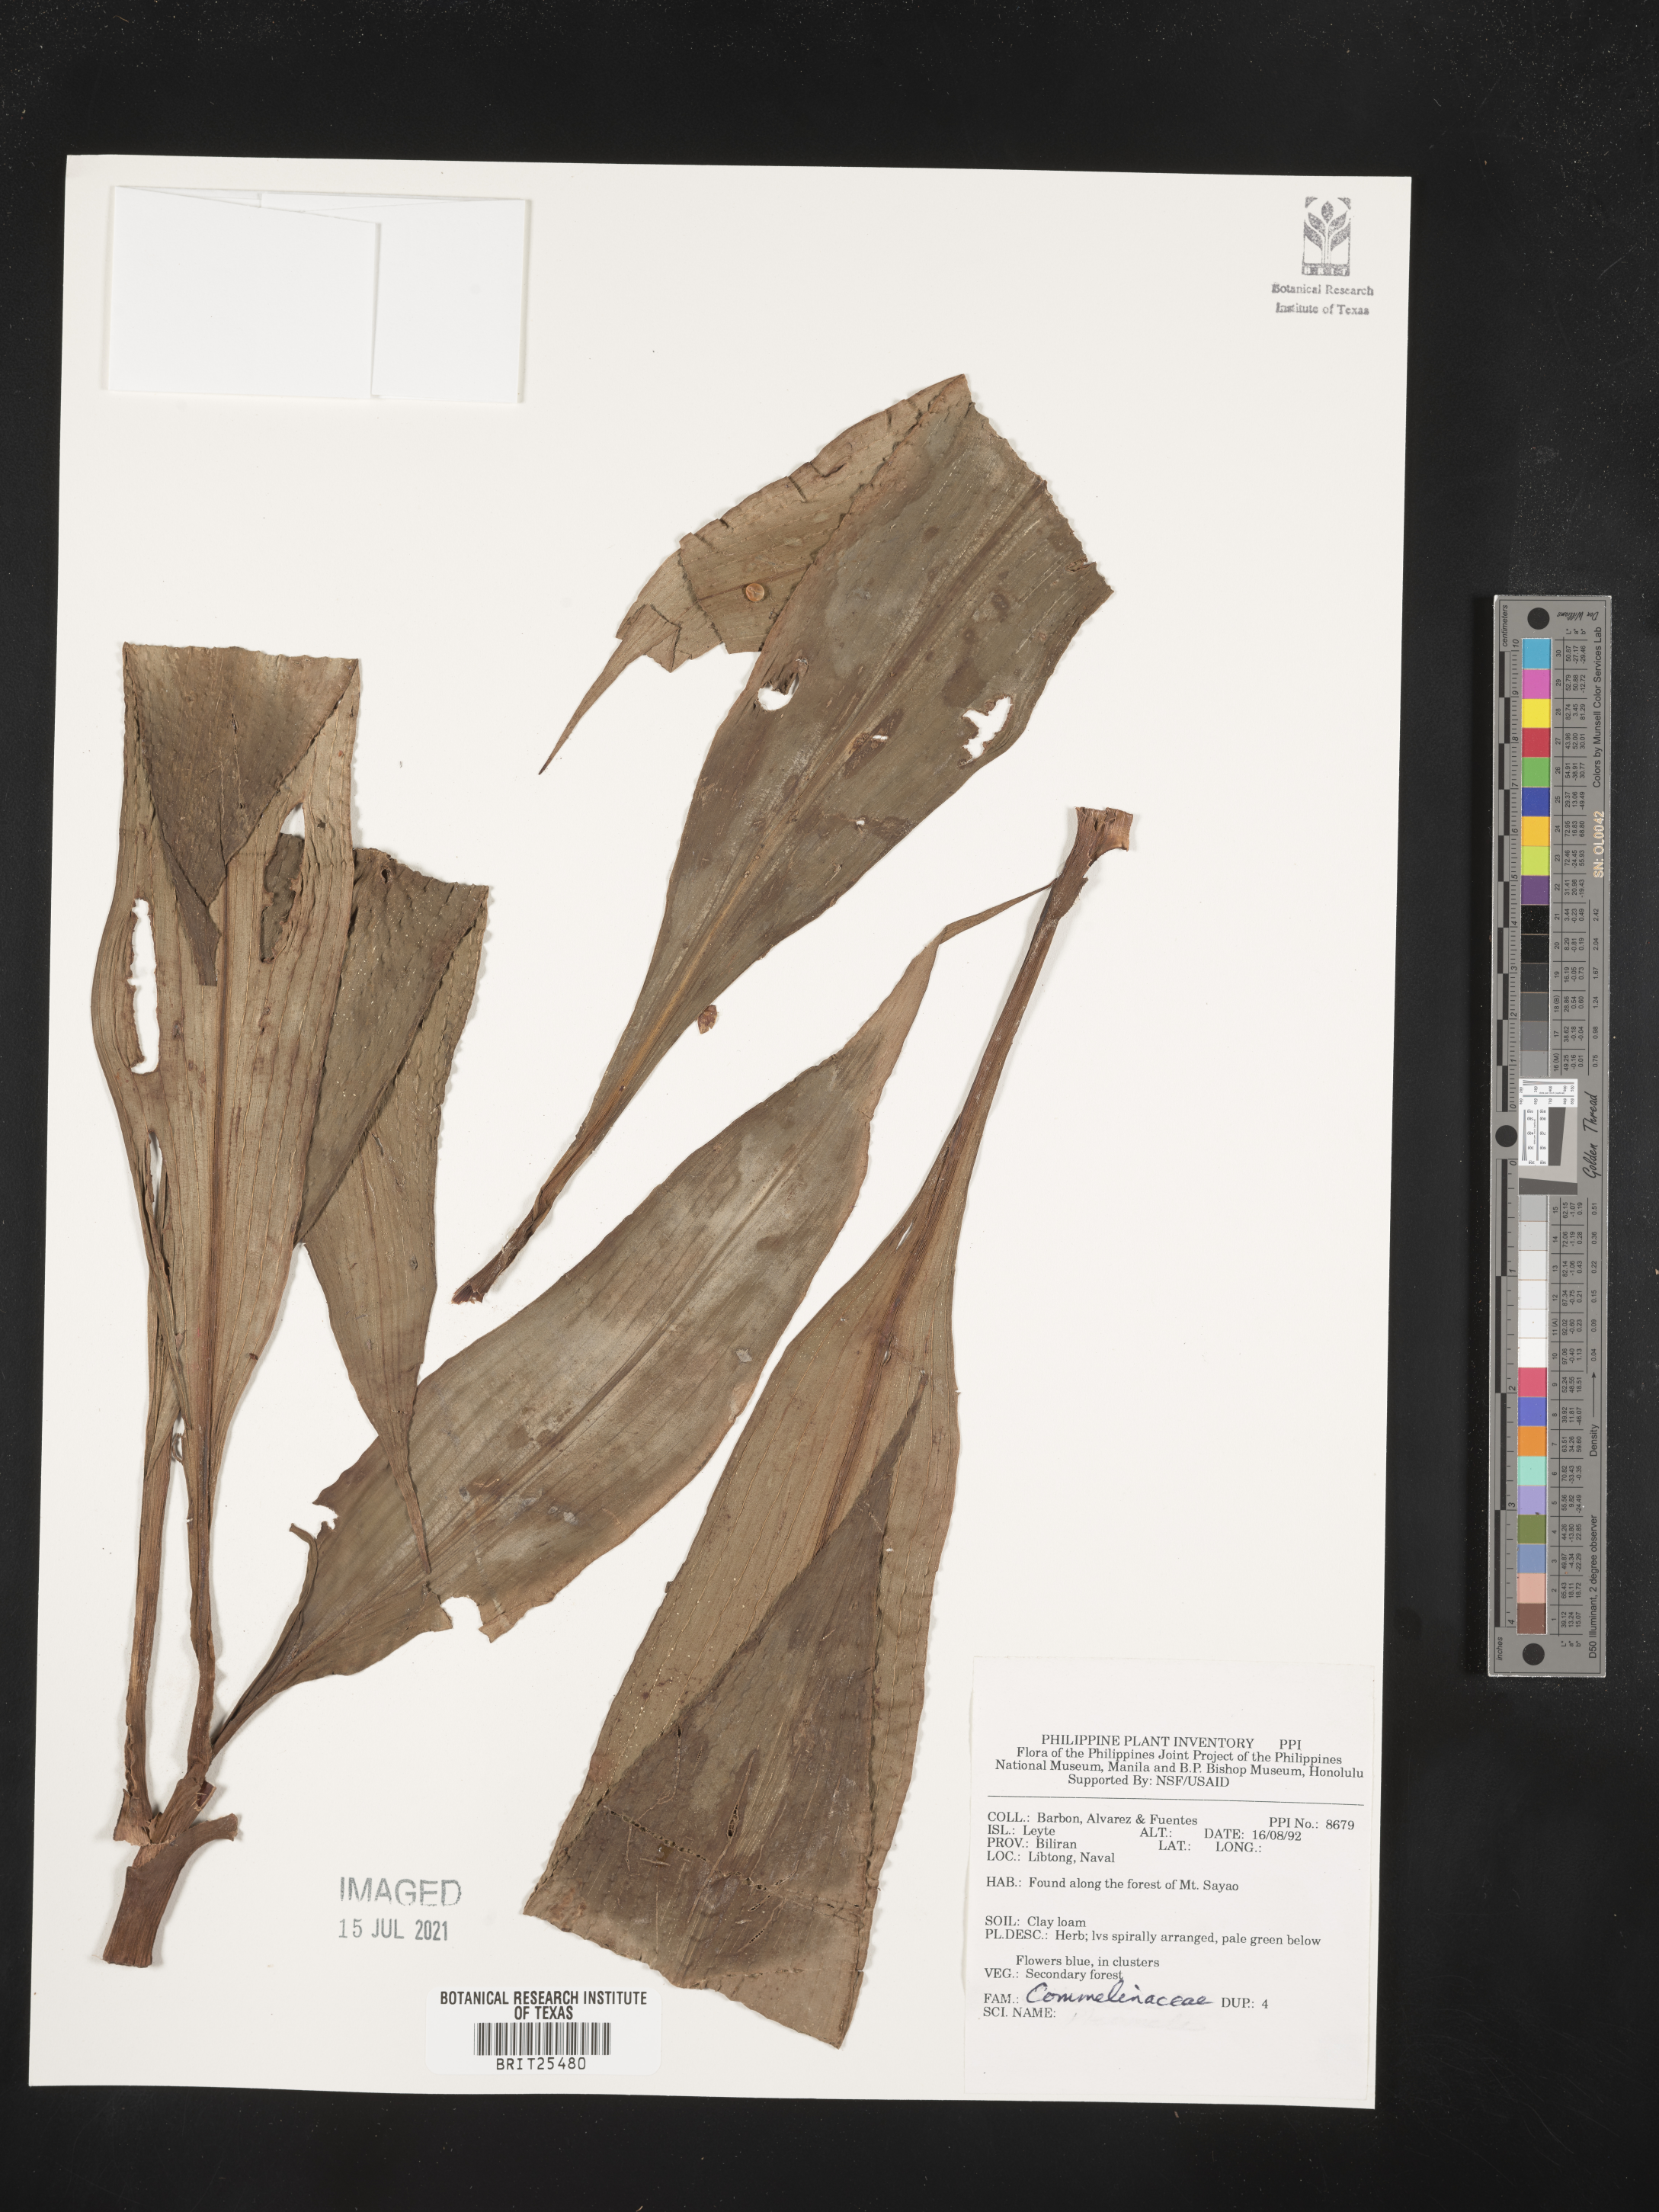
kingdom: Plantae
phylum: Tracheophyta
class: Liliopsida
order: Commelinales
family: Commelinaceae
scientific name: Commelinaceae
